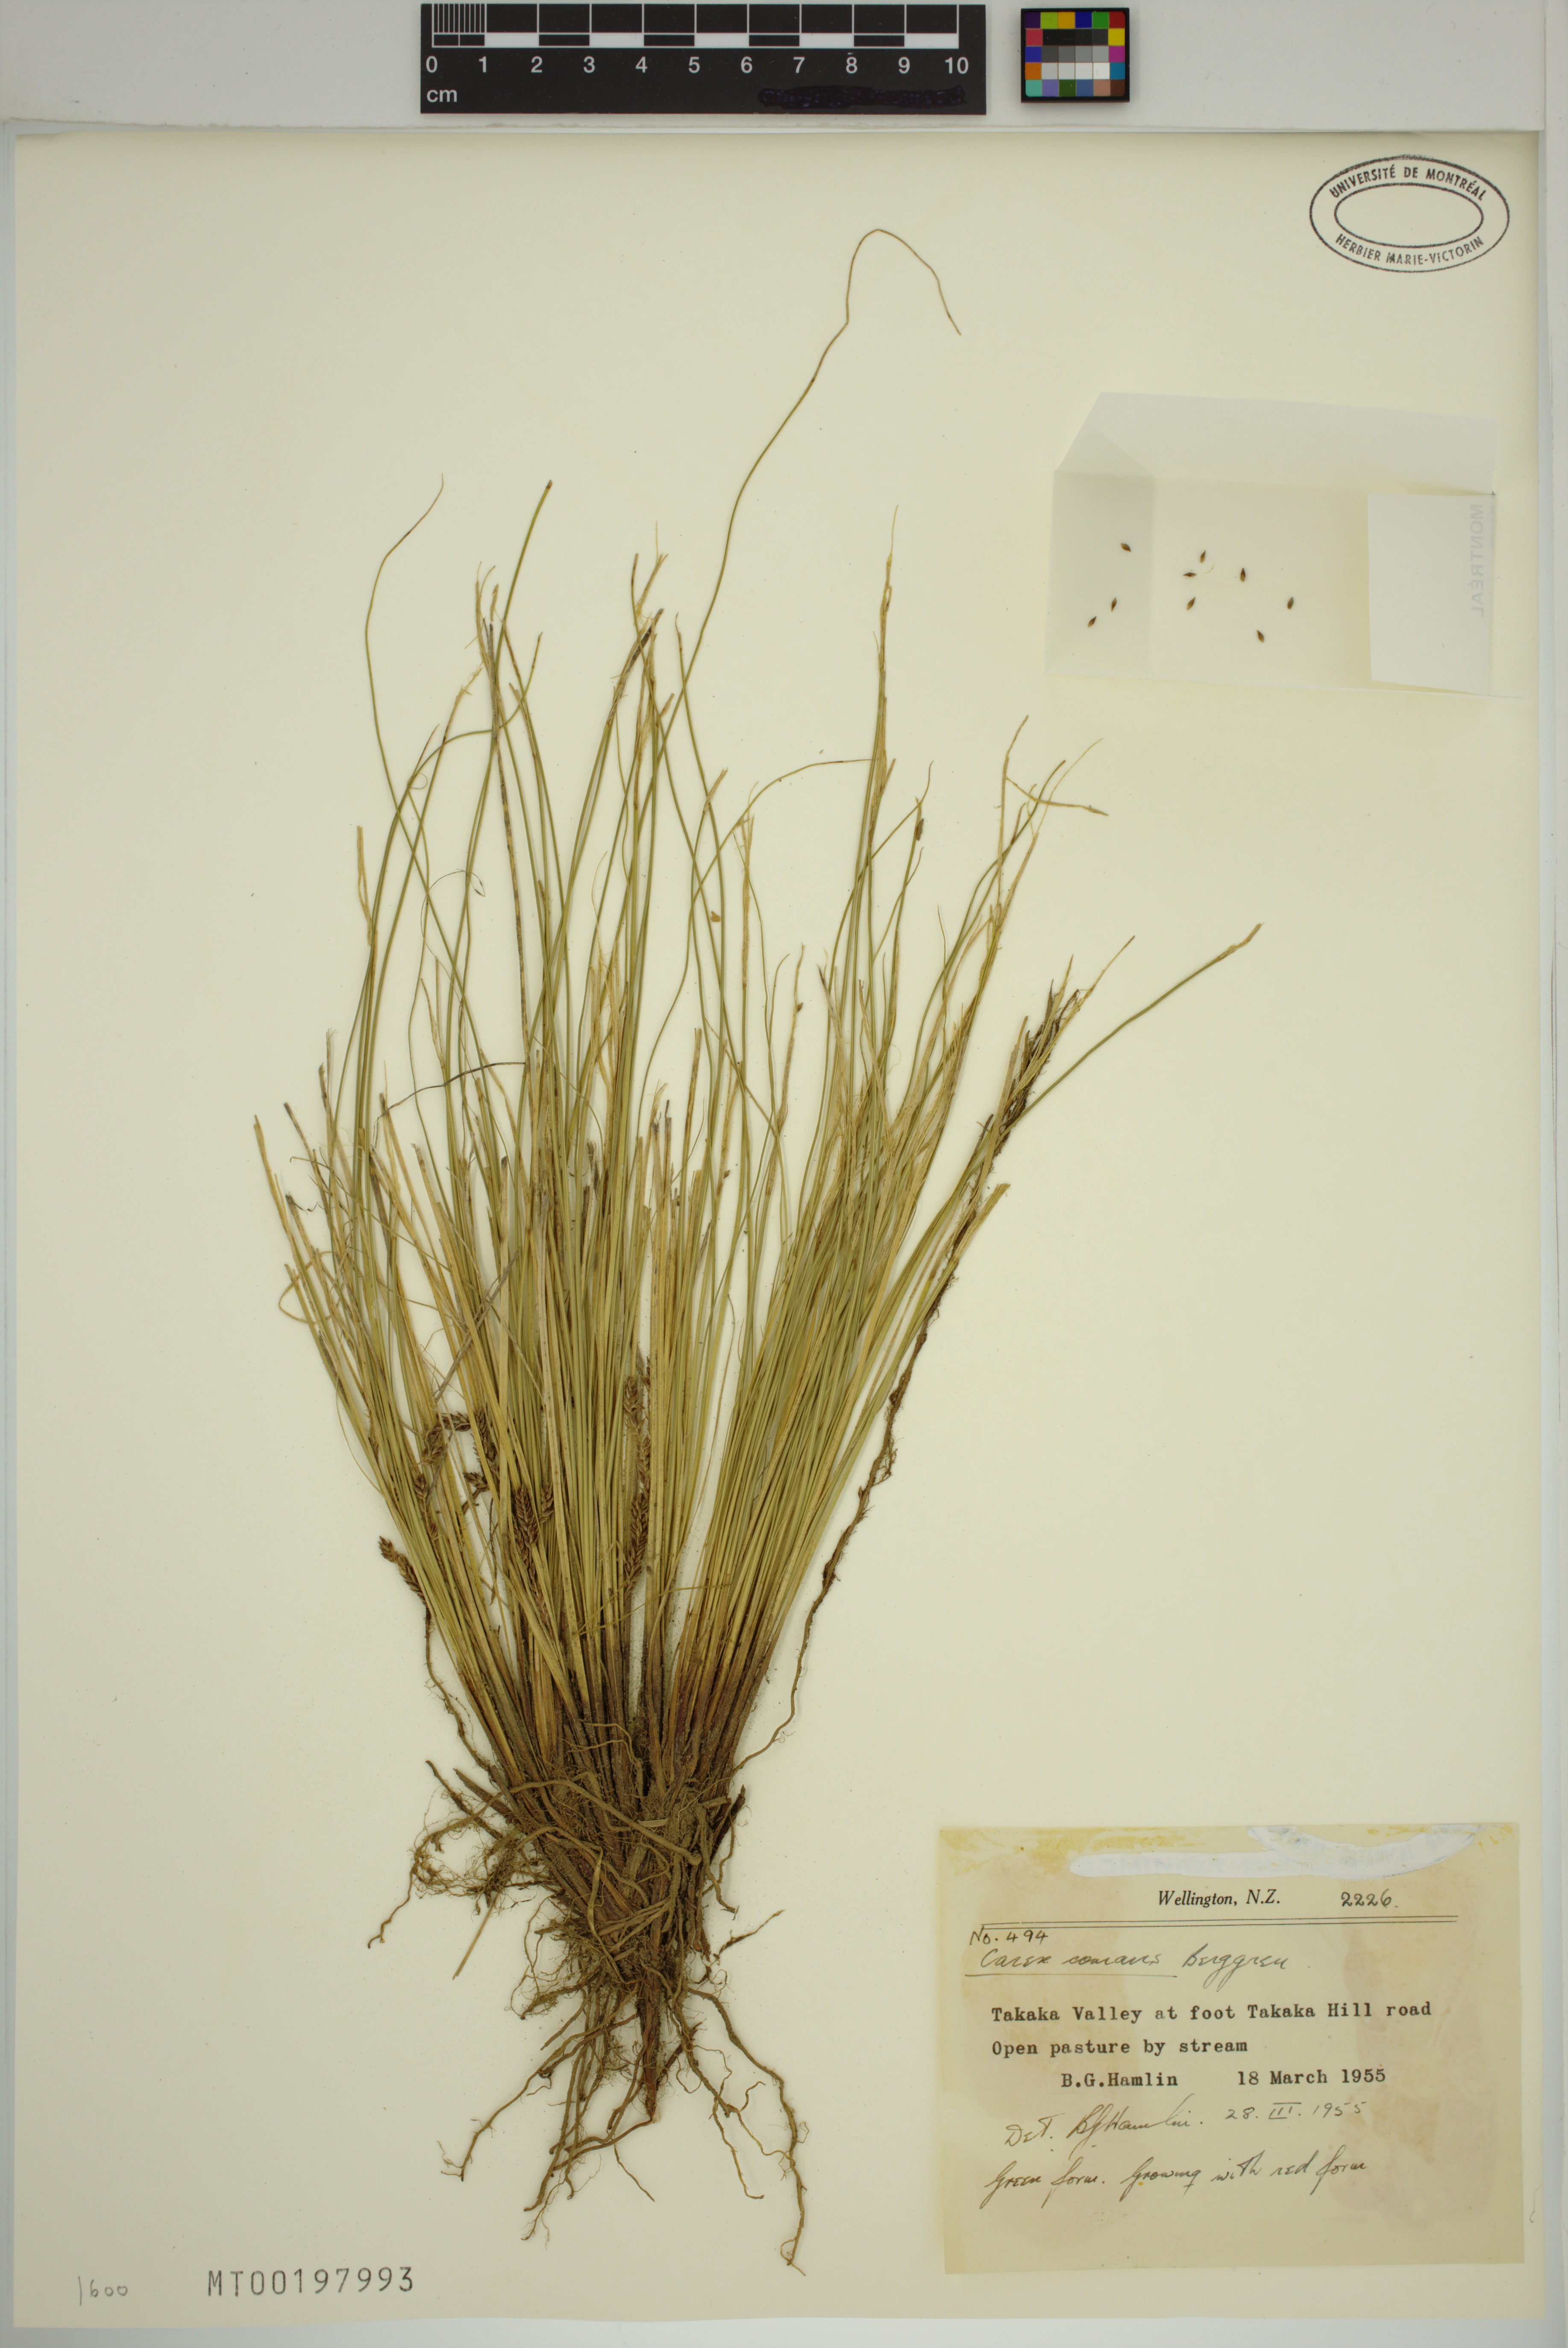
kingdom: Plantae
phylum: Tracheophyta
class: Liliopsida
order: Poales
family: Cyperaceae
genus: Carex
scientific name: Carex comans
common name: Longwood tussock
